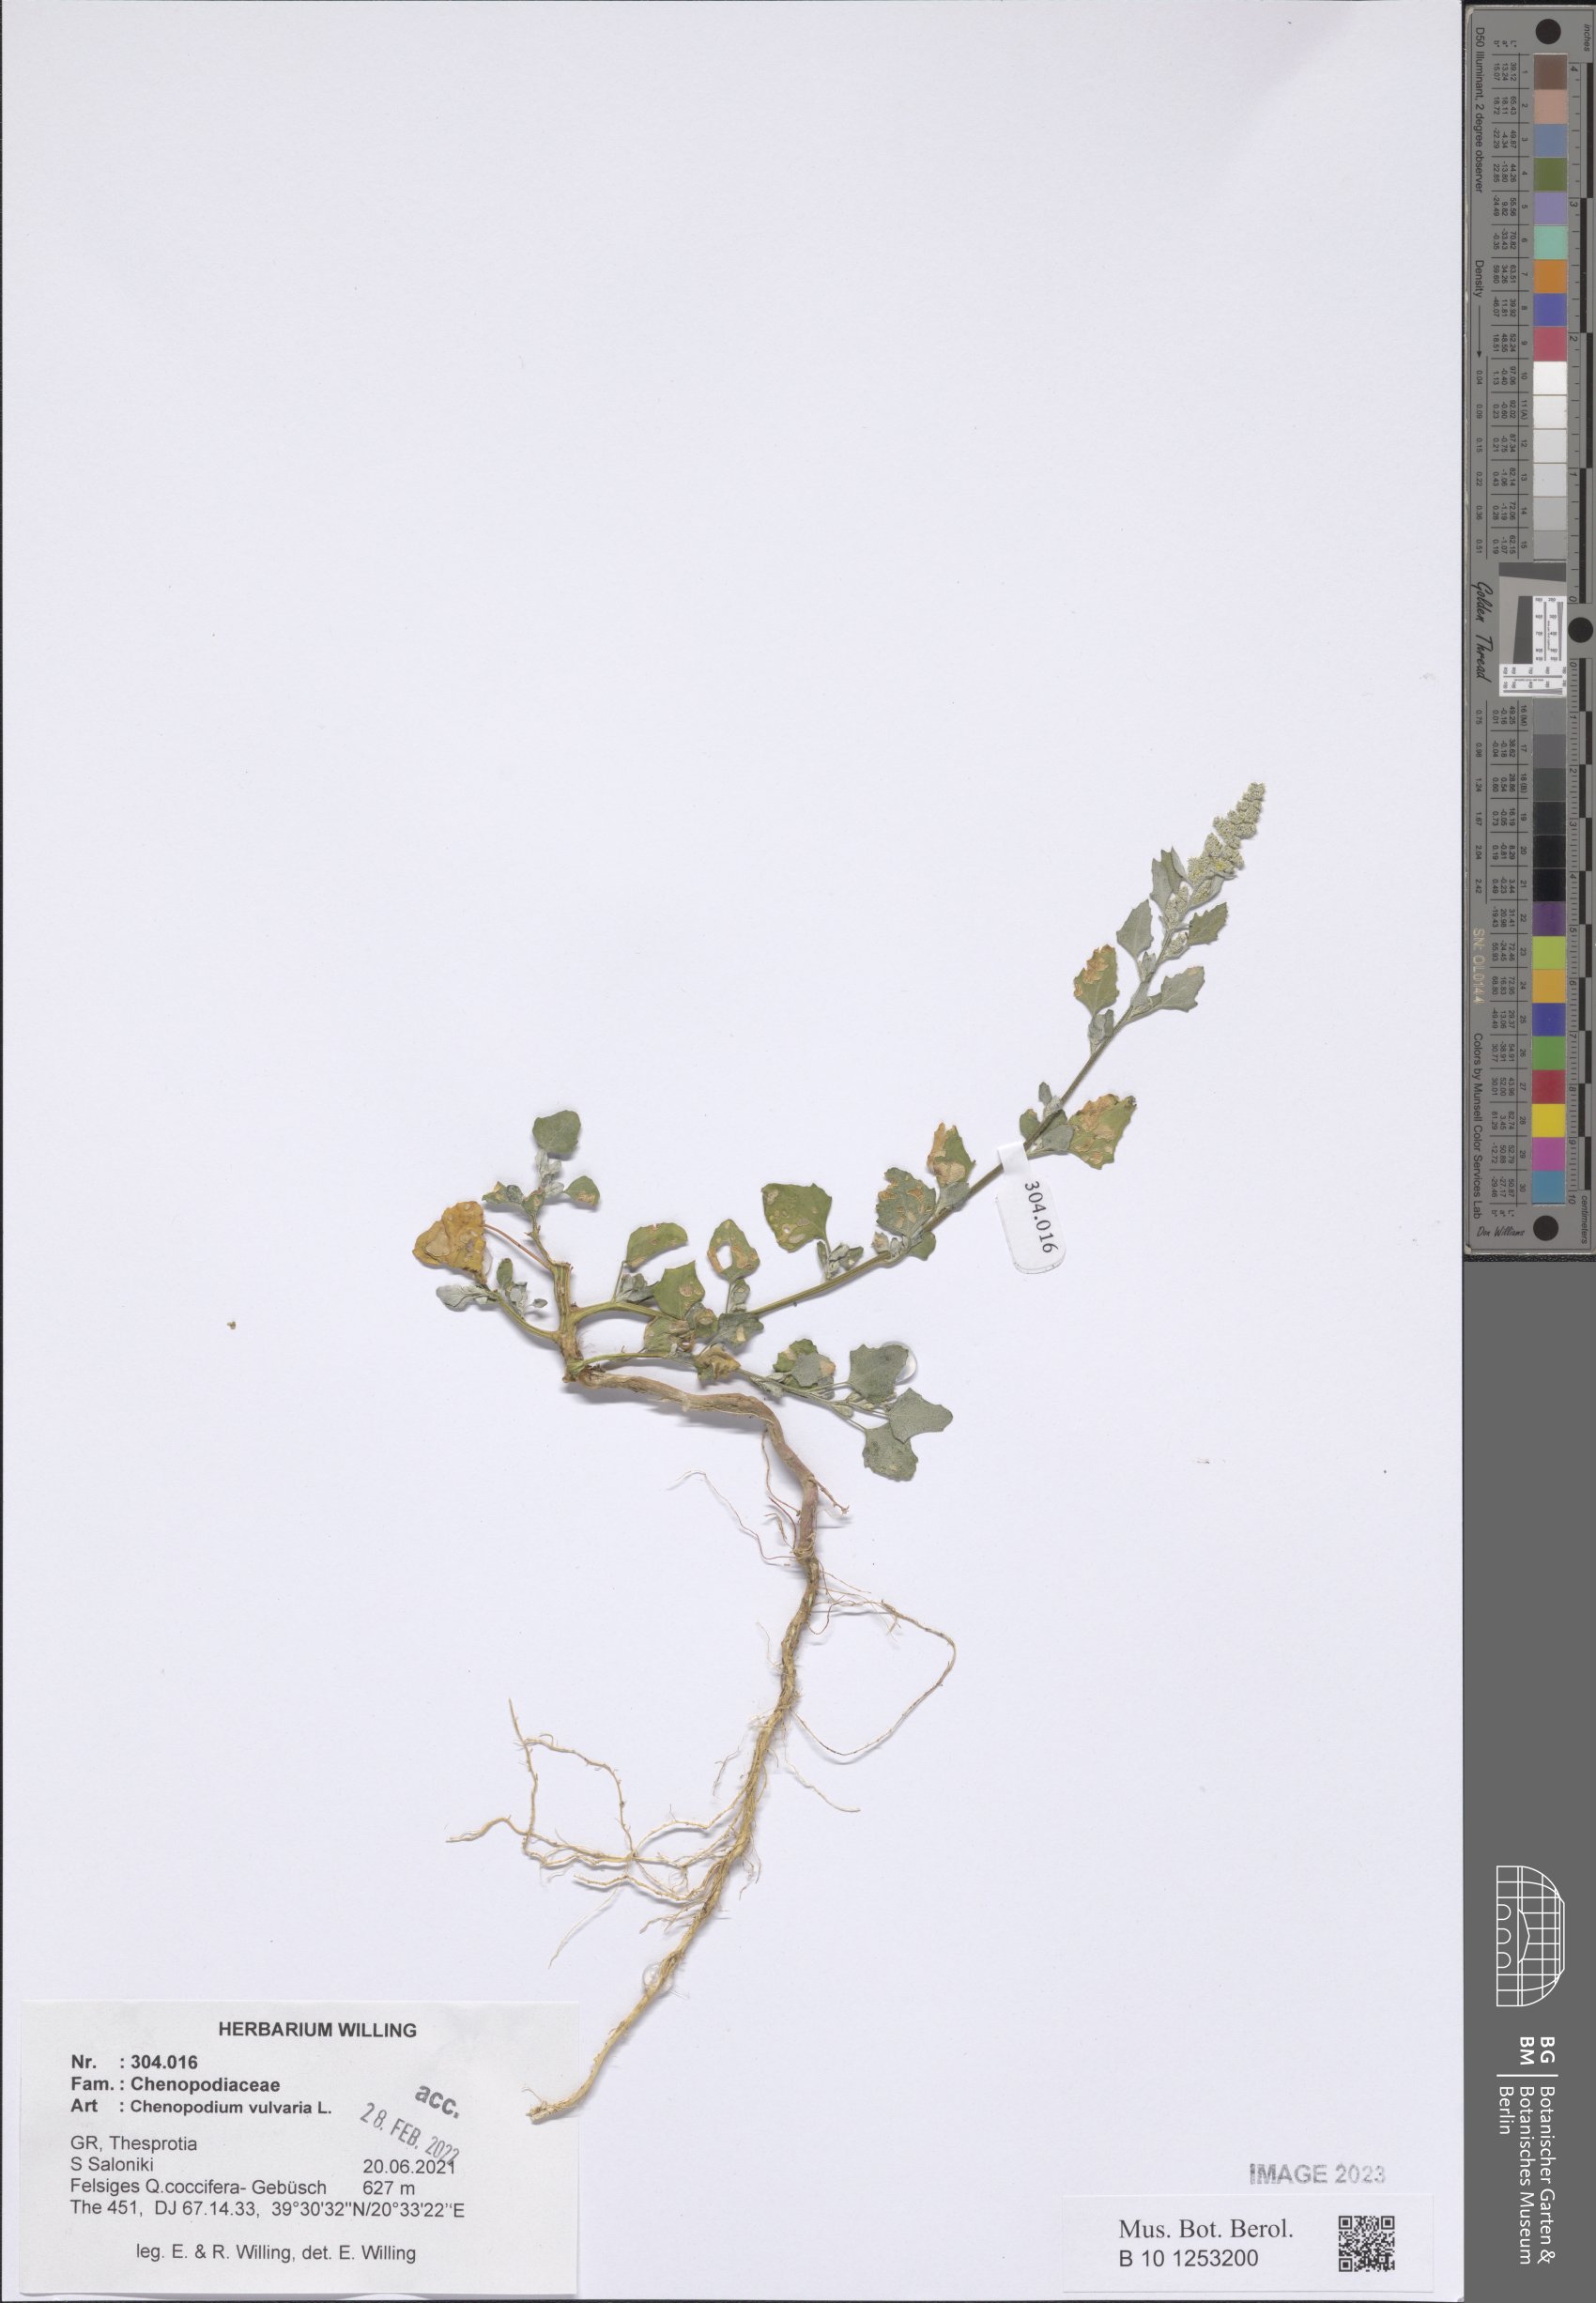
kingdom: Plantae
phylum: Tracheophyta
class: Magnoliopsida
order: Caryophyllales
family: Amaranthaceae
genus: Chenopodium
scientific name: Chenopodium vulvaria
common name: Stinking goosefoot
